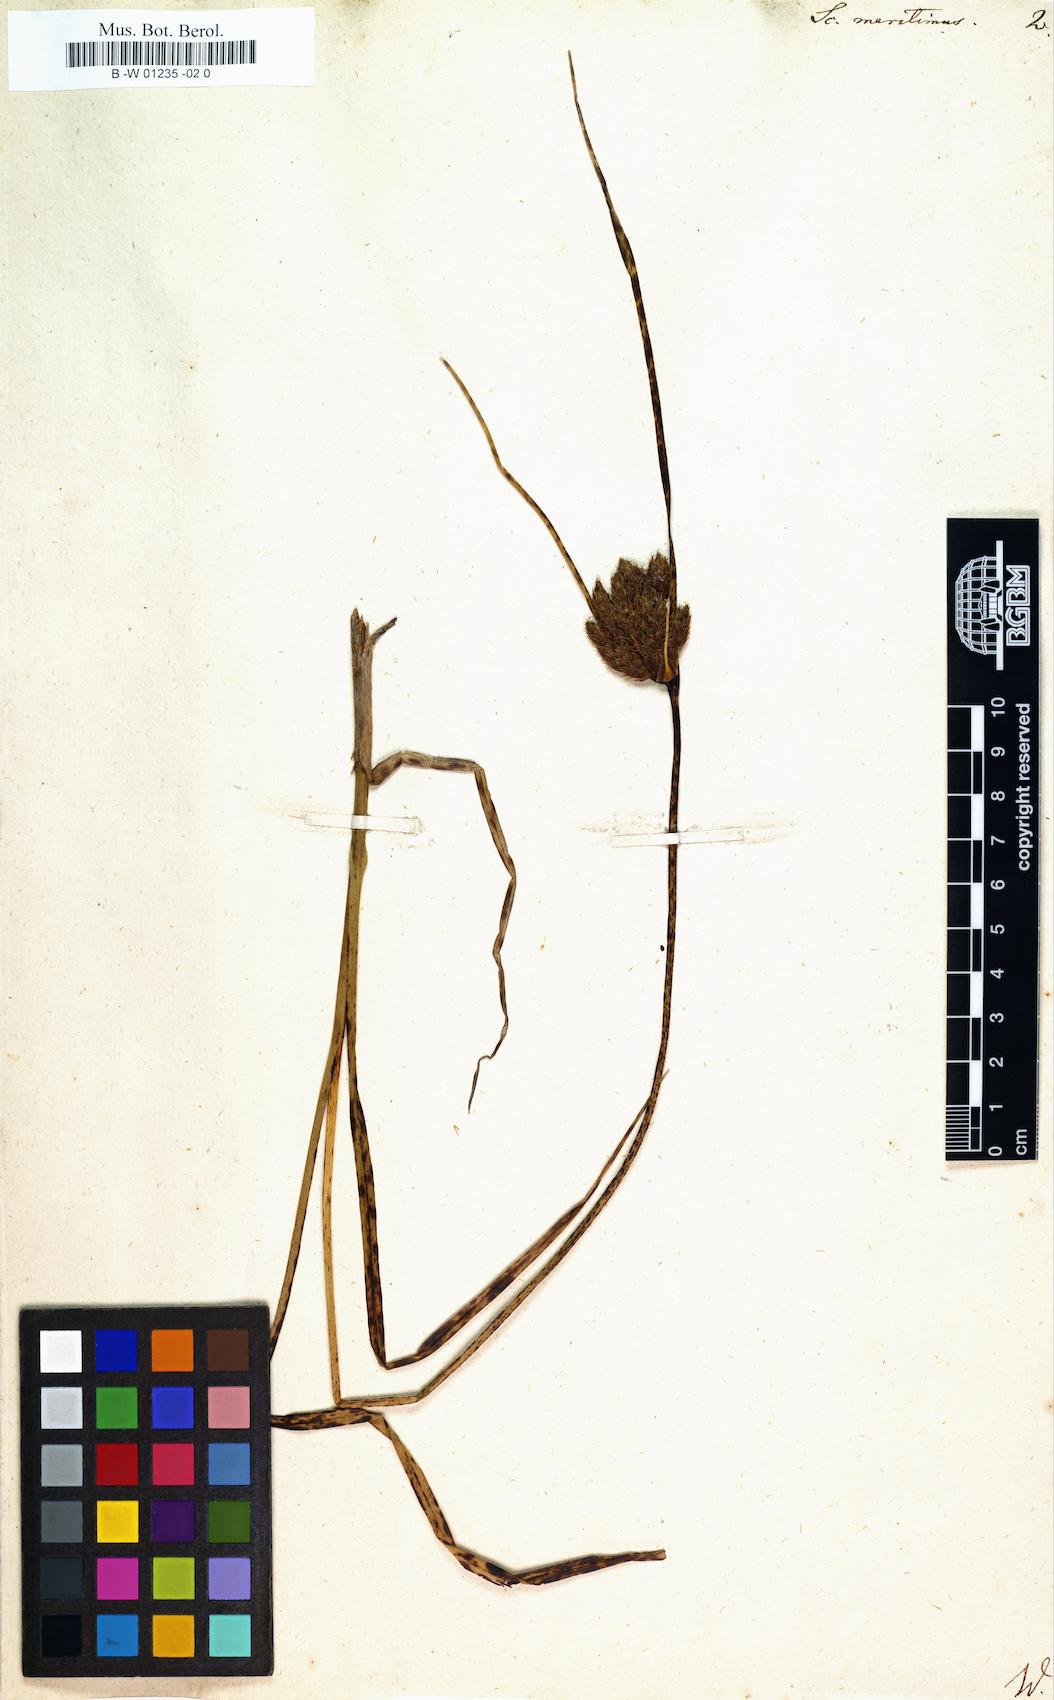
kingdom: Plantae
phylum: Tracheophyta
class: Liliopsida
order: Poales
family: Cyperaceae
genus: Scirpus
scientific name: Scirpus
